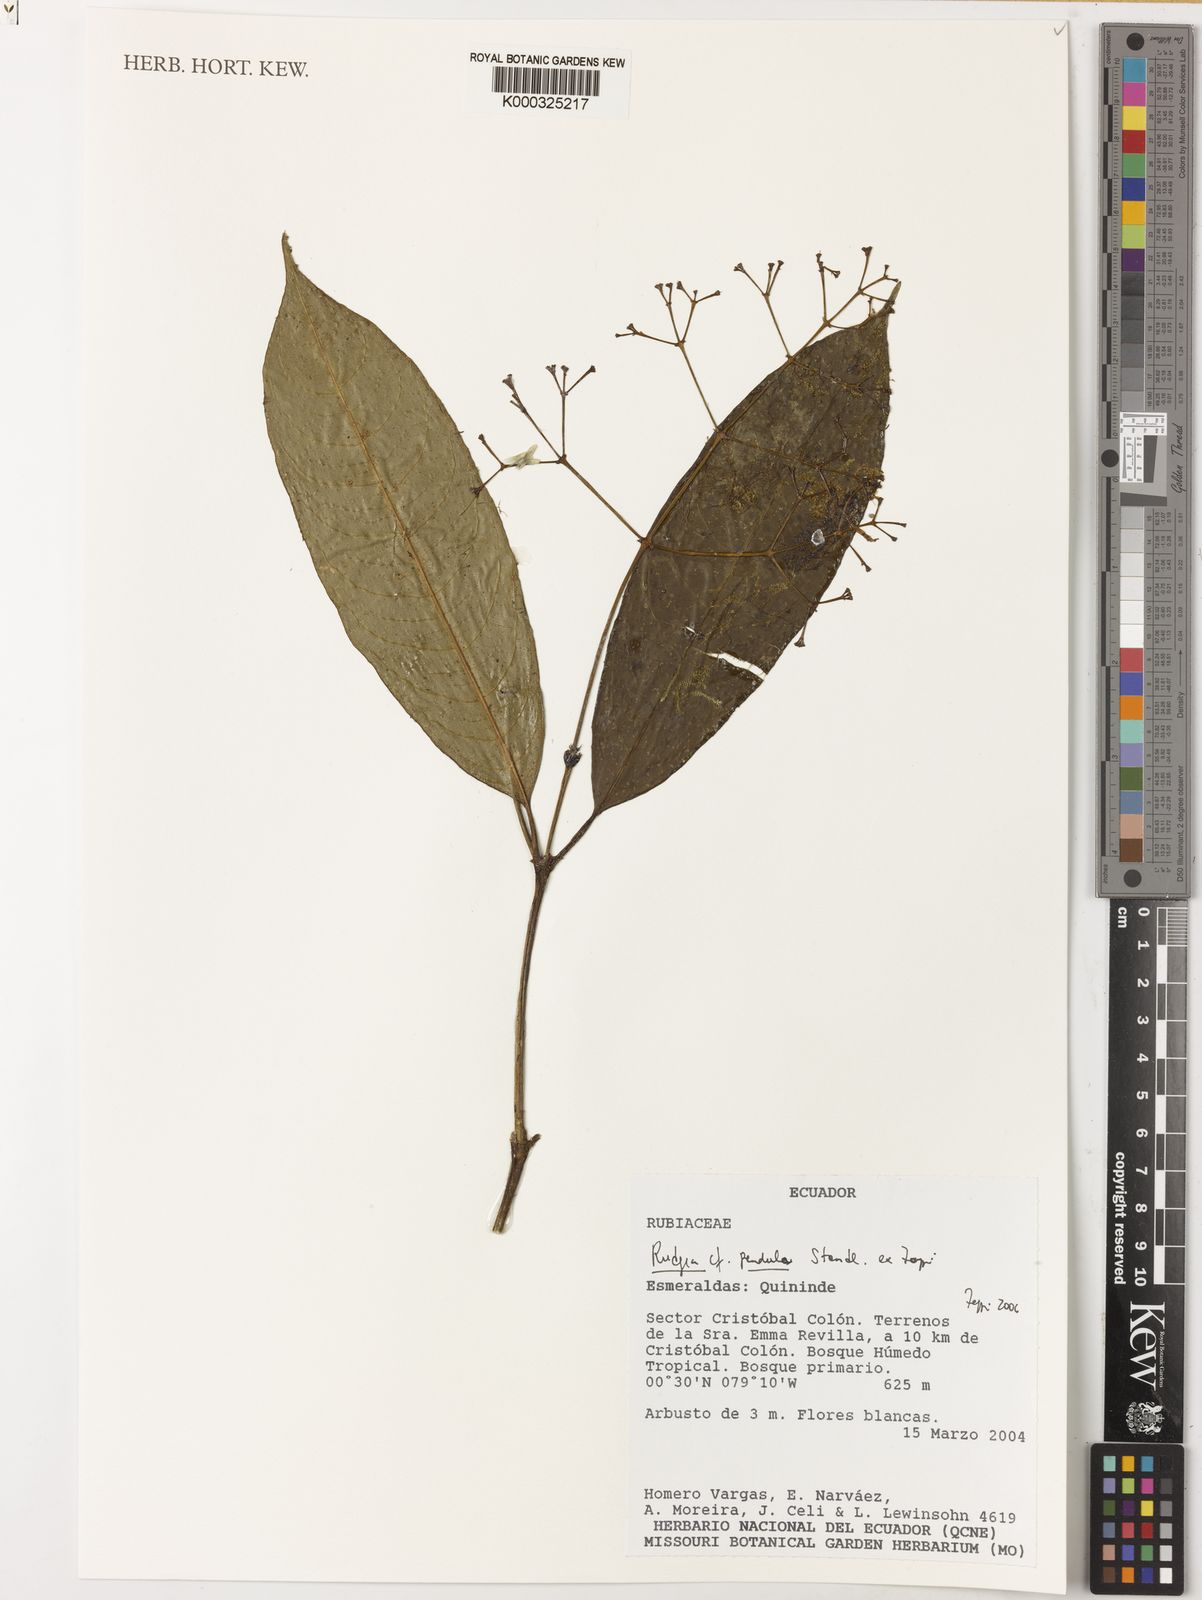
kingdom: Plantae
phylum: Tracheophyta
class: Magnoliopsida
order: Gentianales
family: Rubiaceae
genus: Rudgea
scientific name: Rudgea pendula
